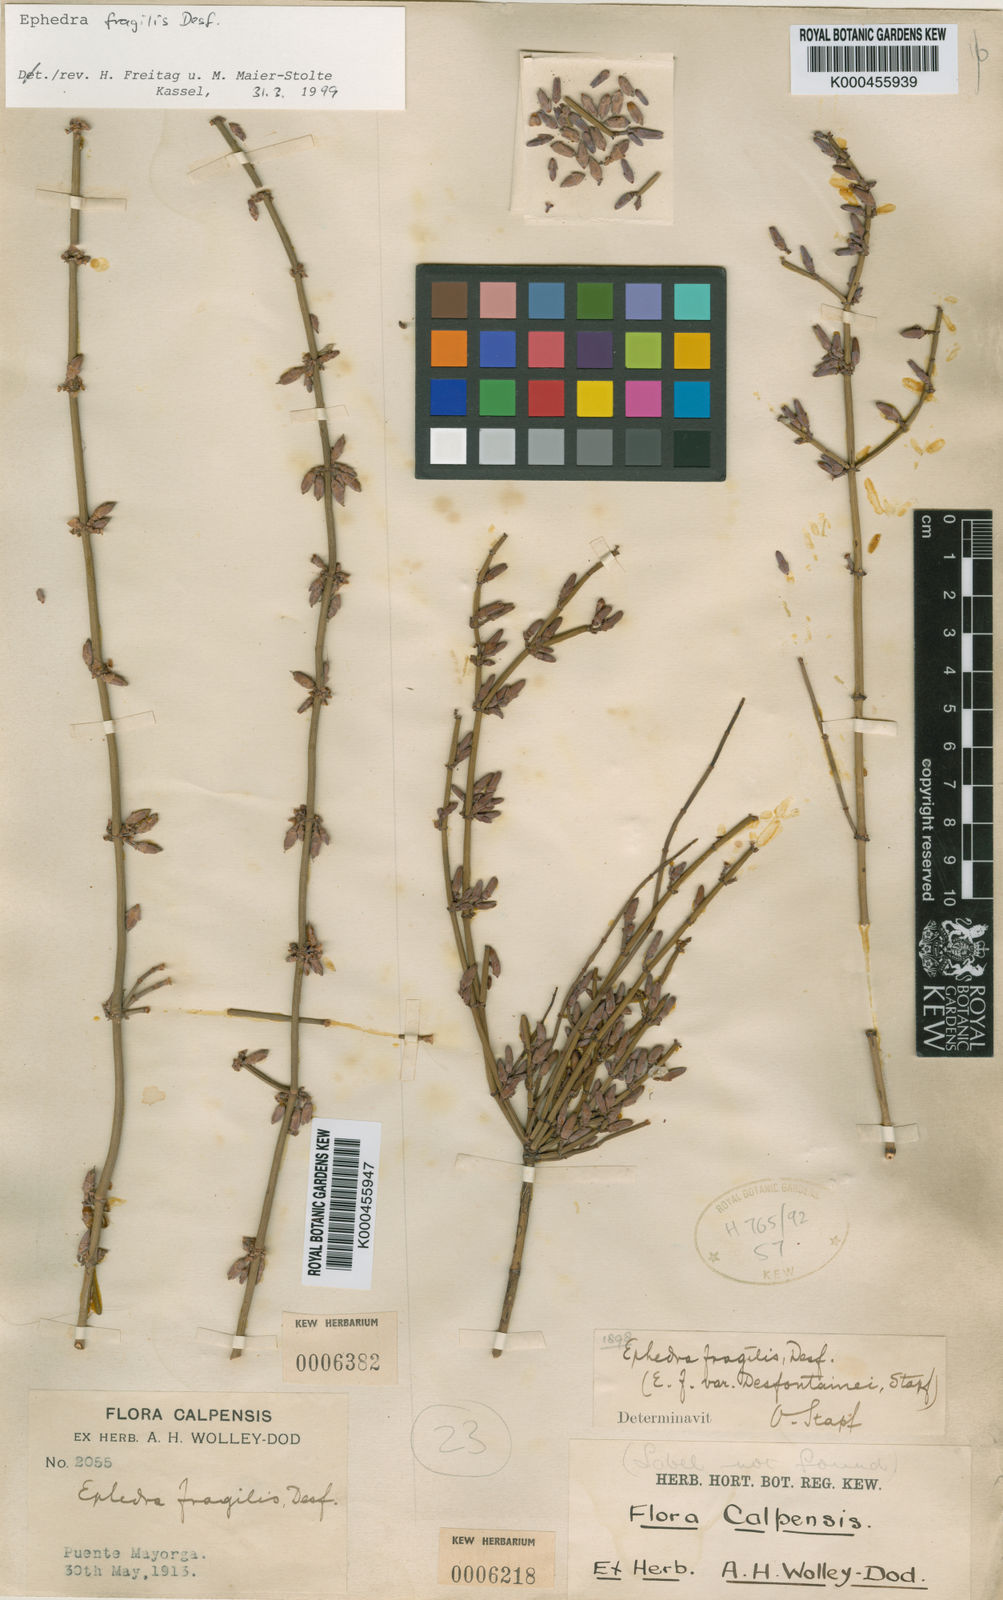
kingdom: Plantae
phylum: Tracheophyta
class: Gnetopsida
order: Ephedrales
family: Ephedraceae
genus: Ephedra
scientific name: Ephedra fragilis
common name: Joint pine
